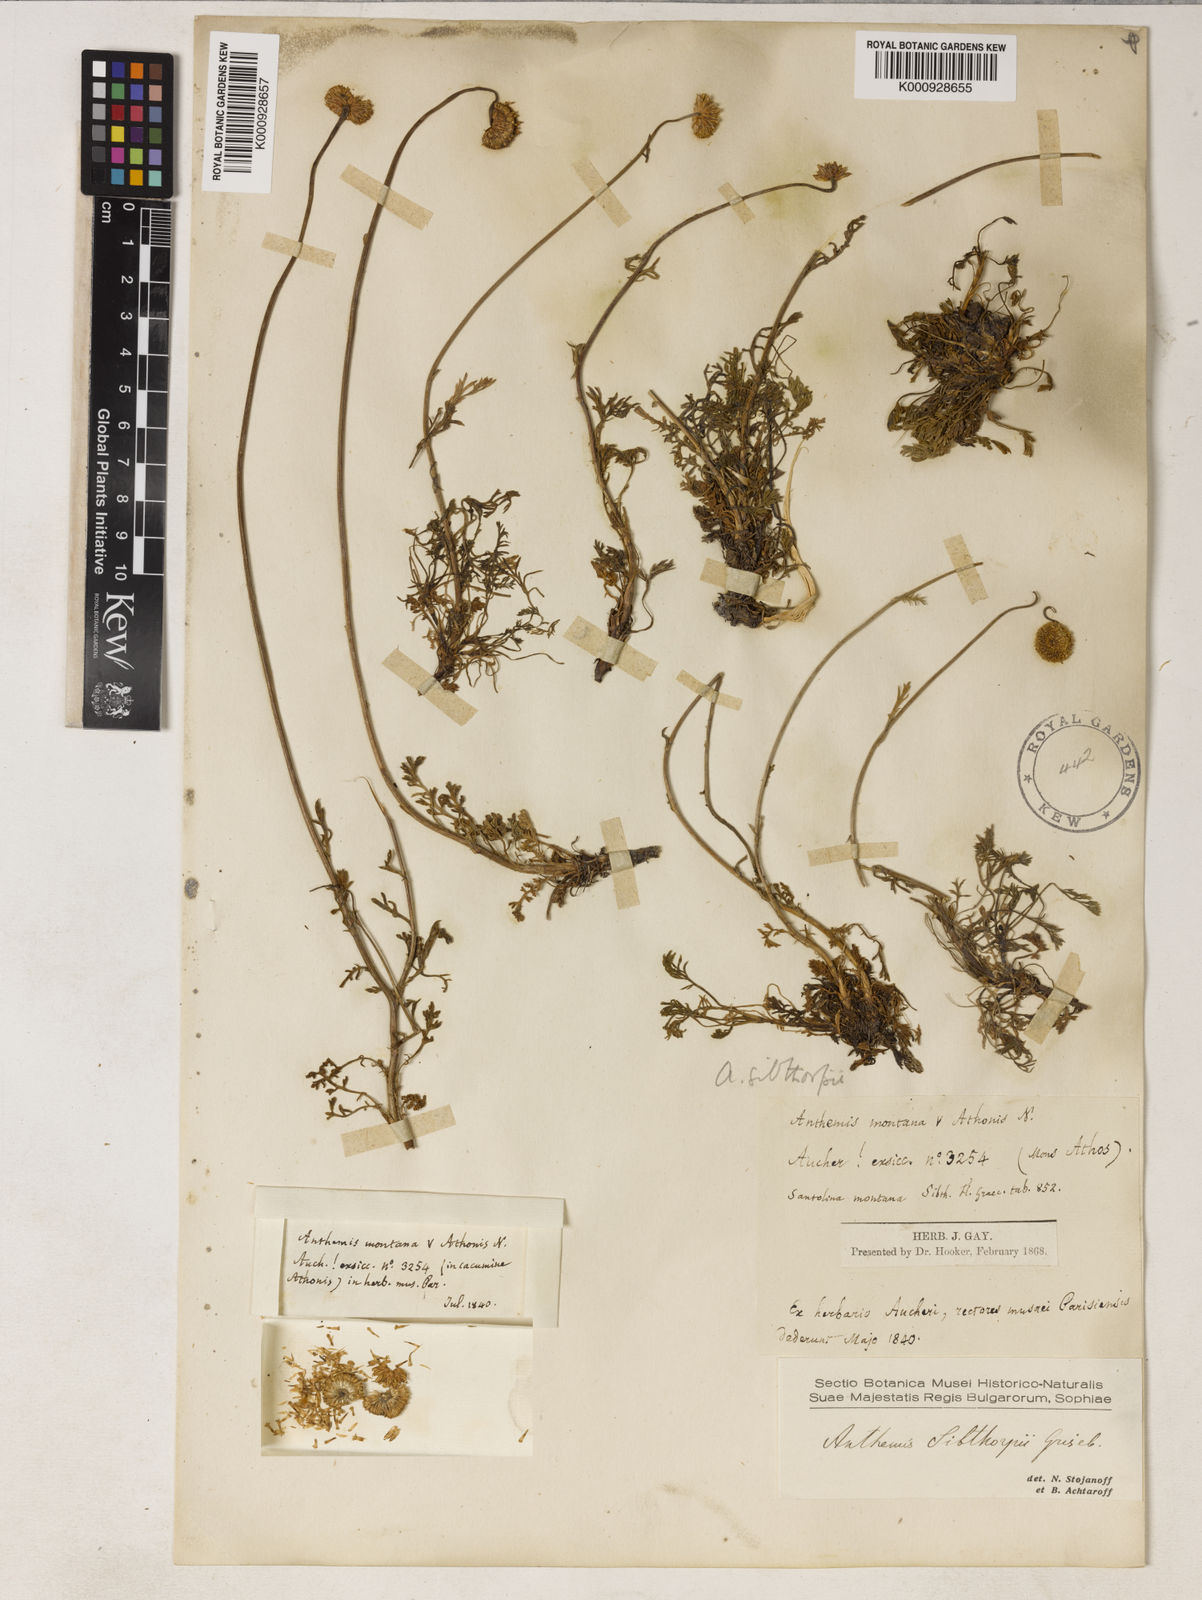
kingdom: Plantae
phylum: Tracheophyta
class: Magnoliopsida
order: Asterales
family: Asteraceae
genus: Anthemis
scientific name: Anthemis sibthorpii
